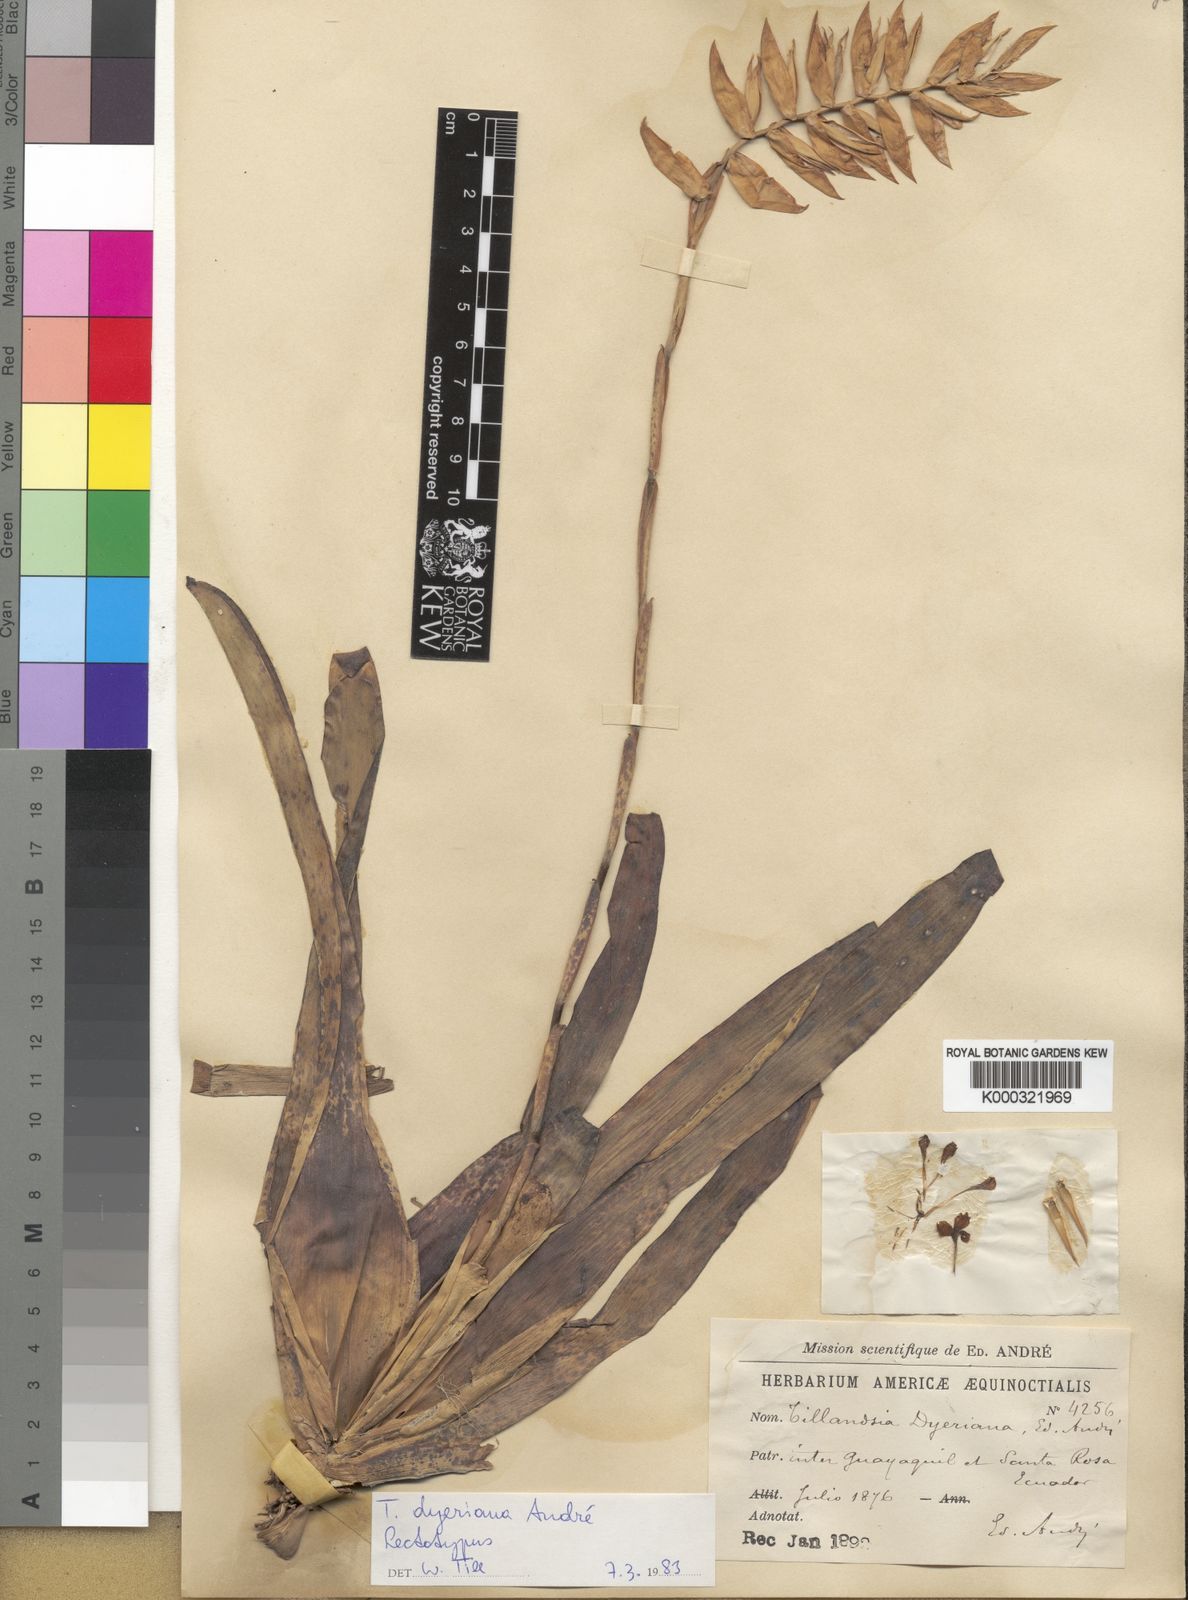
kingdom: Plantae
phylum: Tracheophyta
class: Liliopsida
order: Poales
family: Bromeliaceae
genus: Tillandsia
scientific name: Tillandsia
